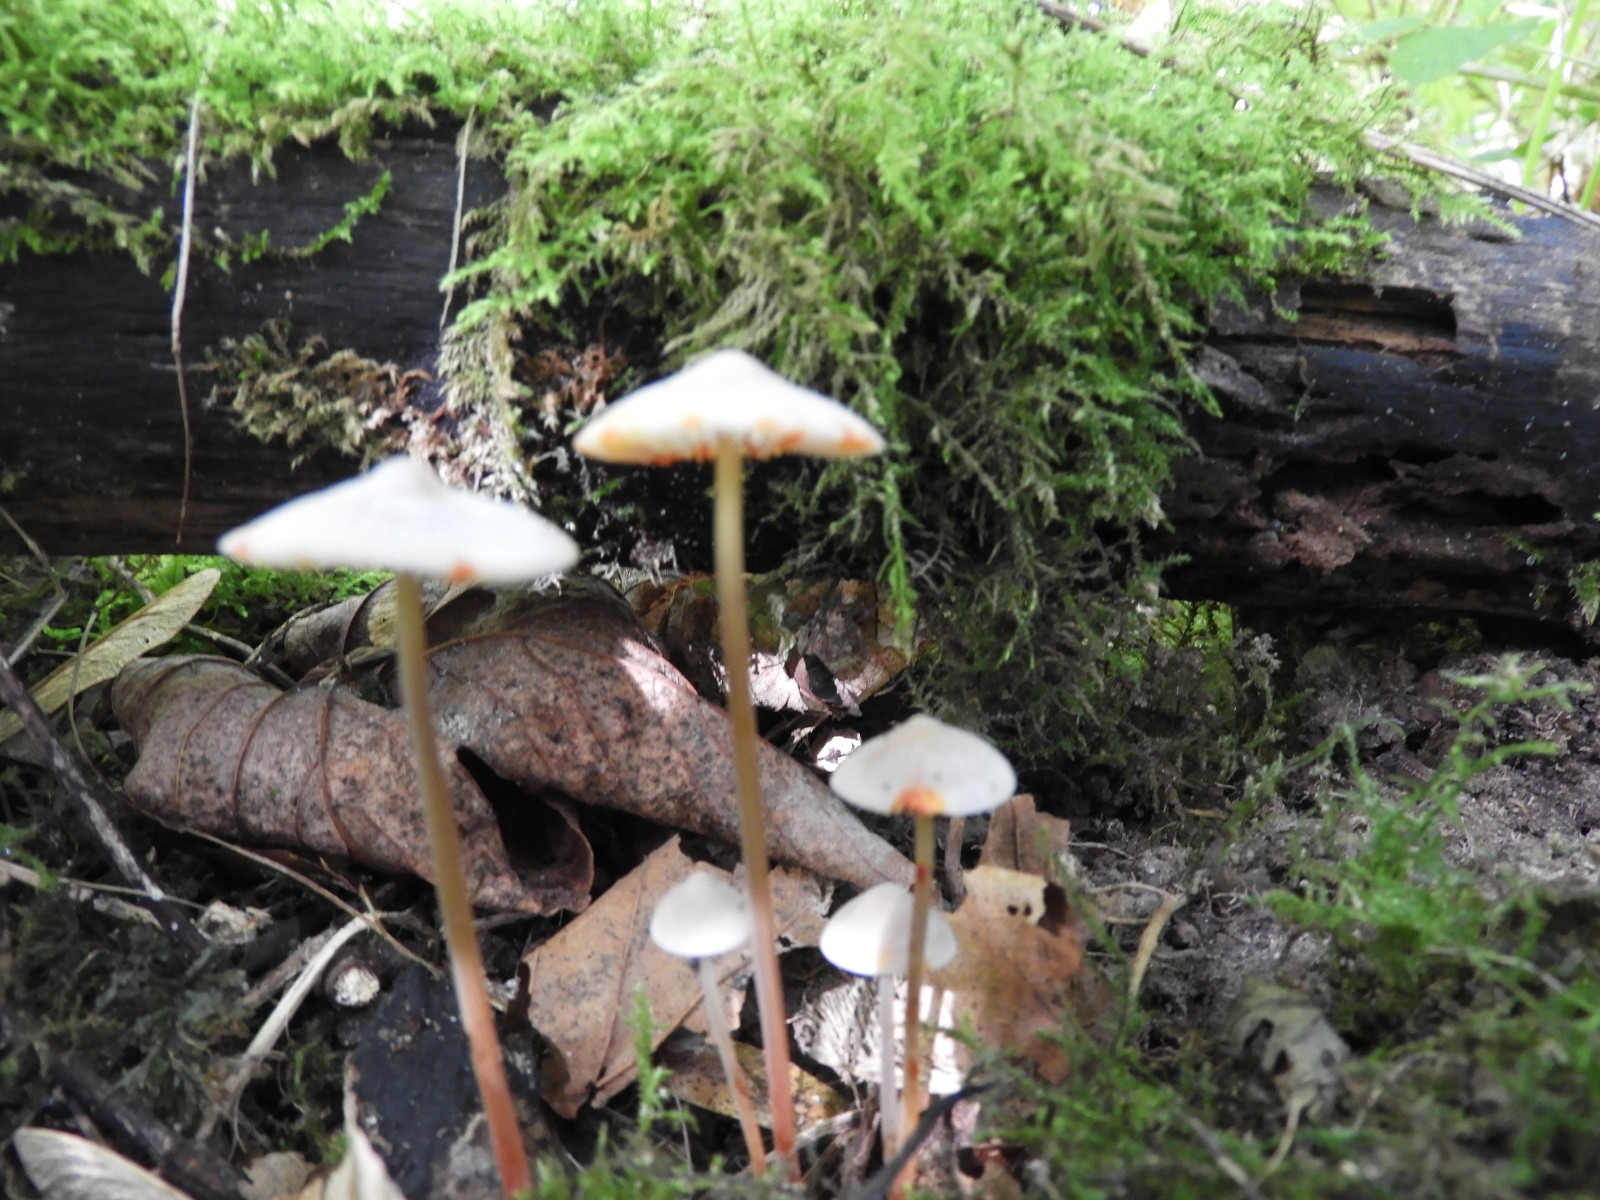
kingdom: Fungi
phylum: Basidiomycota
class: Agaricomycetes
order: Agaricales
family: Mycenaceae
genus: Mycena
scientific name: Mycena crocata
